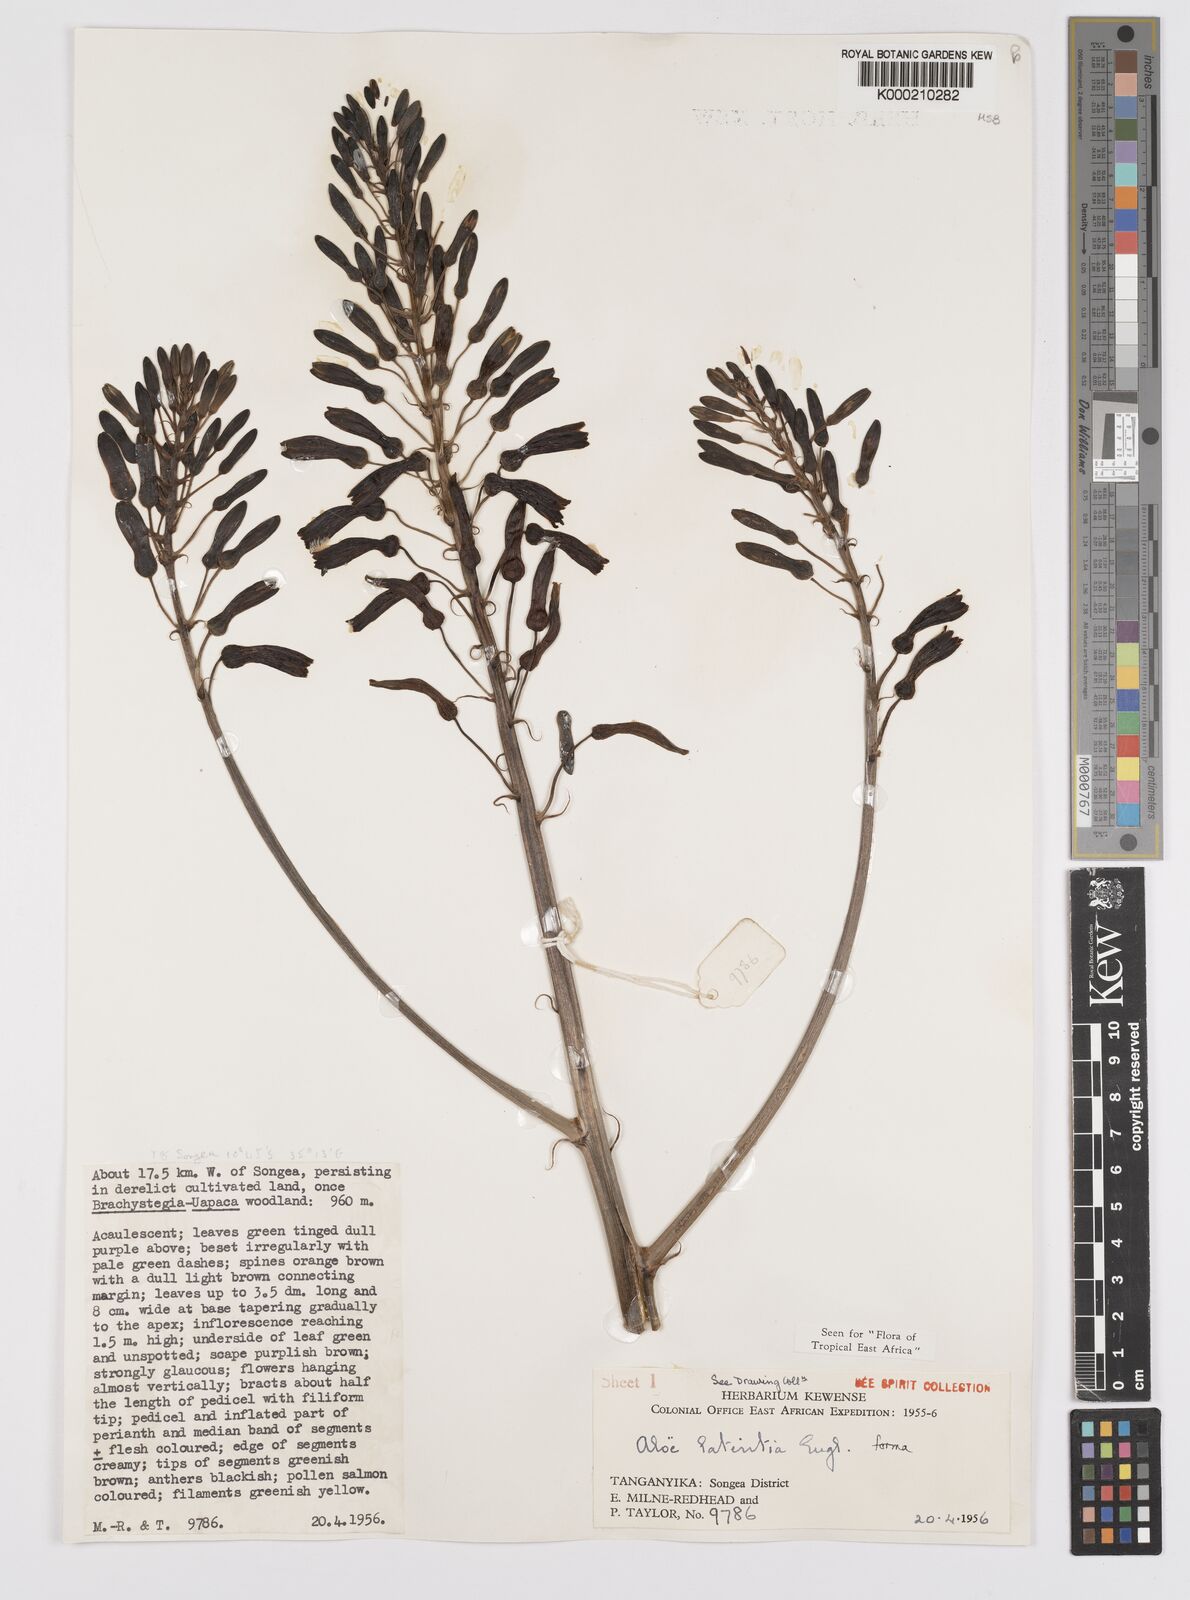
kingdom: Plantae
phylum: Tracheophyta
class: Liliopsida
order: Asparagales
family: Asphodelaceae
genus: Aloe
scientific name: Aloe lateritia
